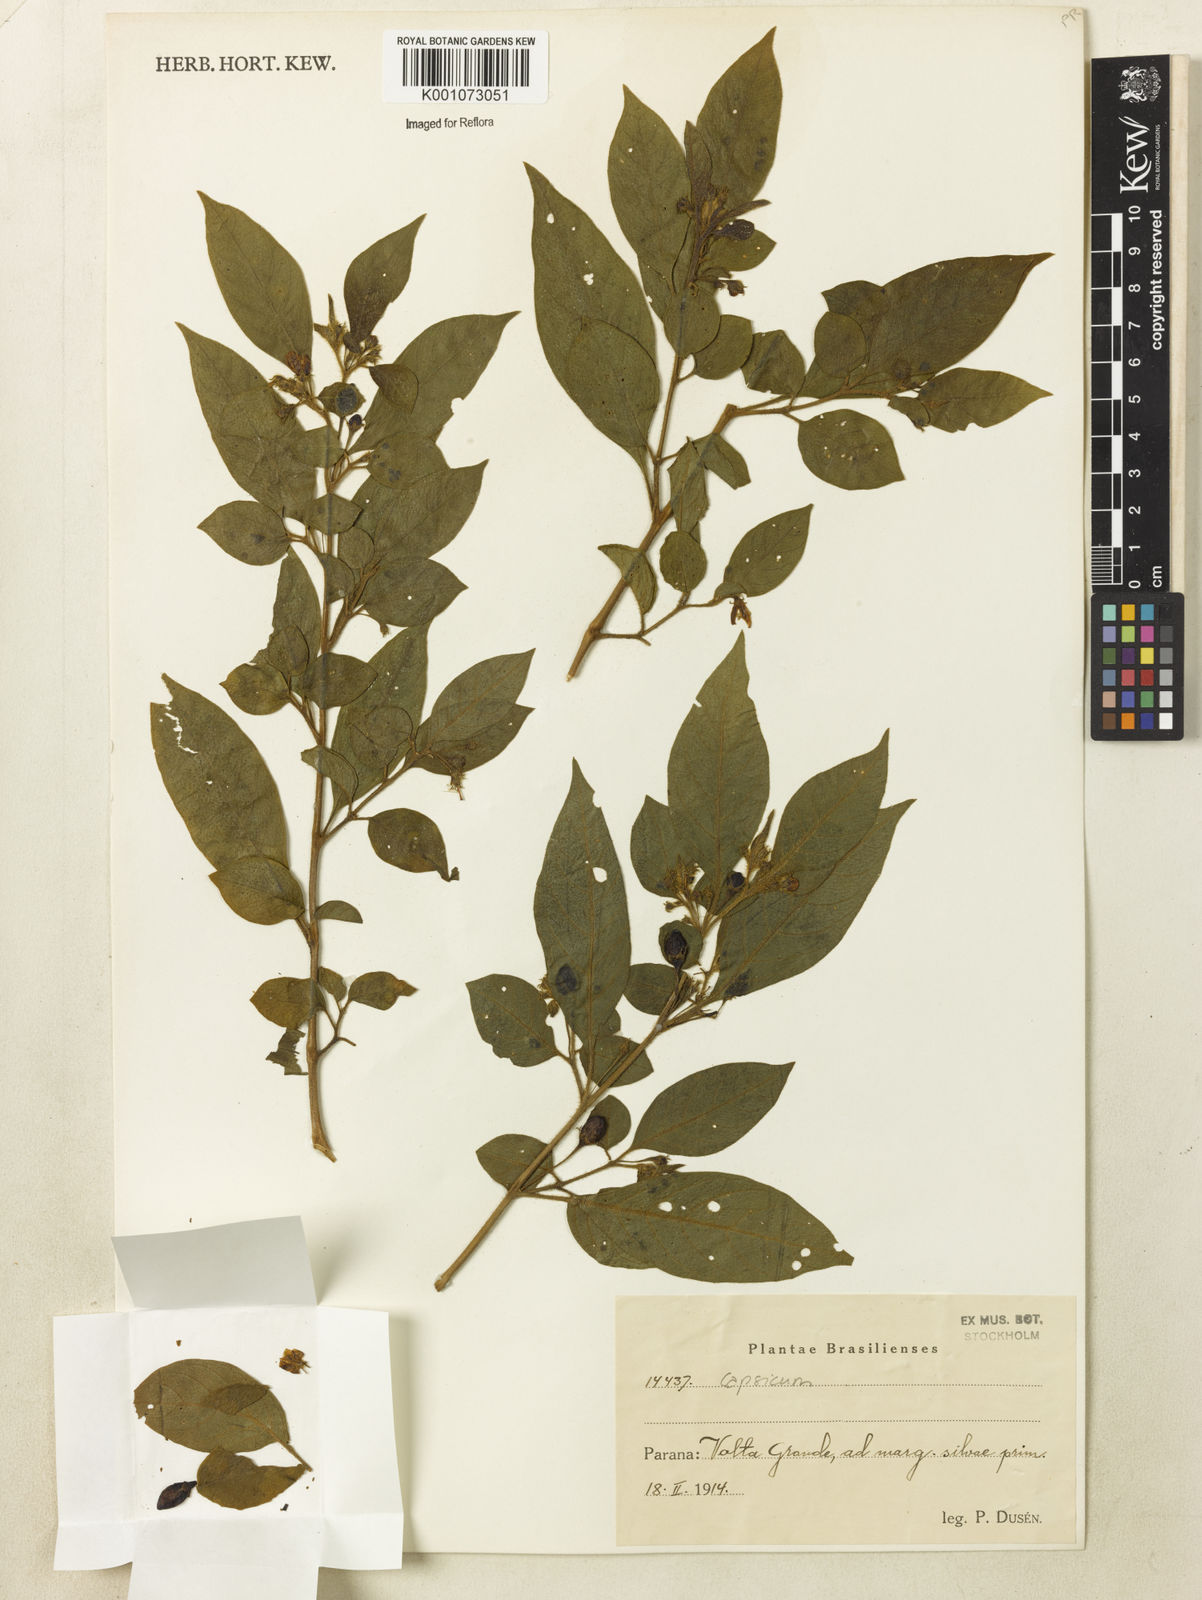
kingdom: Plantae
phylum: Tracheophyta
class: Magnoliopsida
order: Solanales
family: Solanaceae
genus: Capsicum
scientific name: Capsicum
